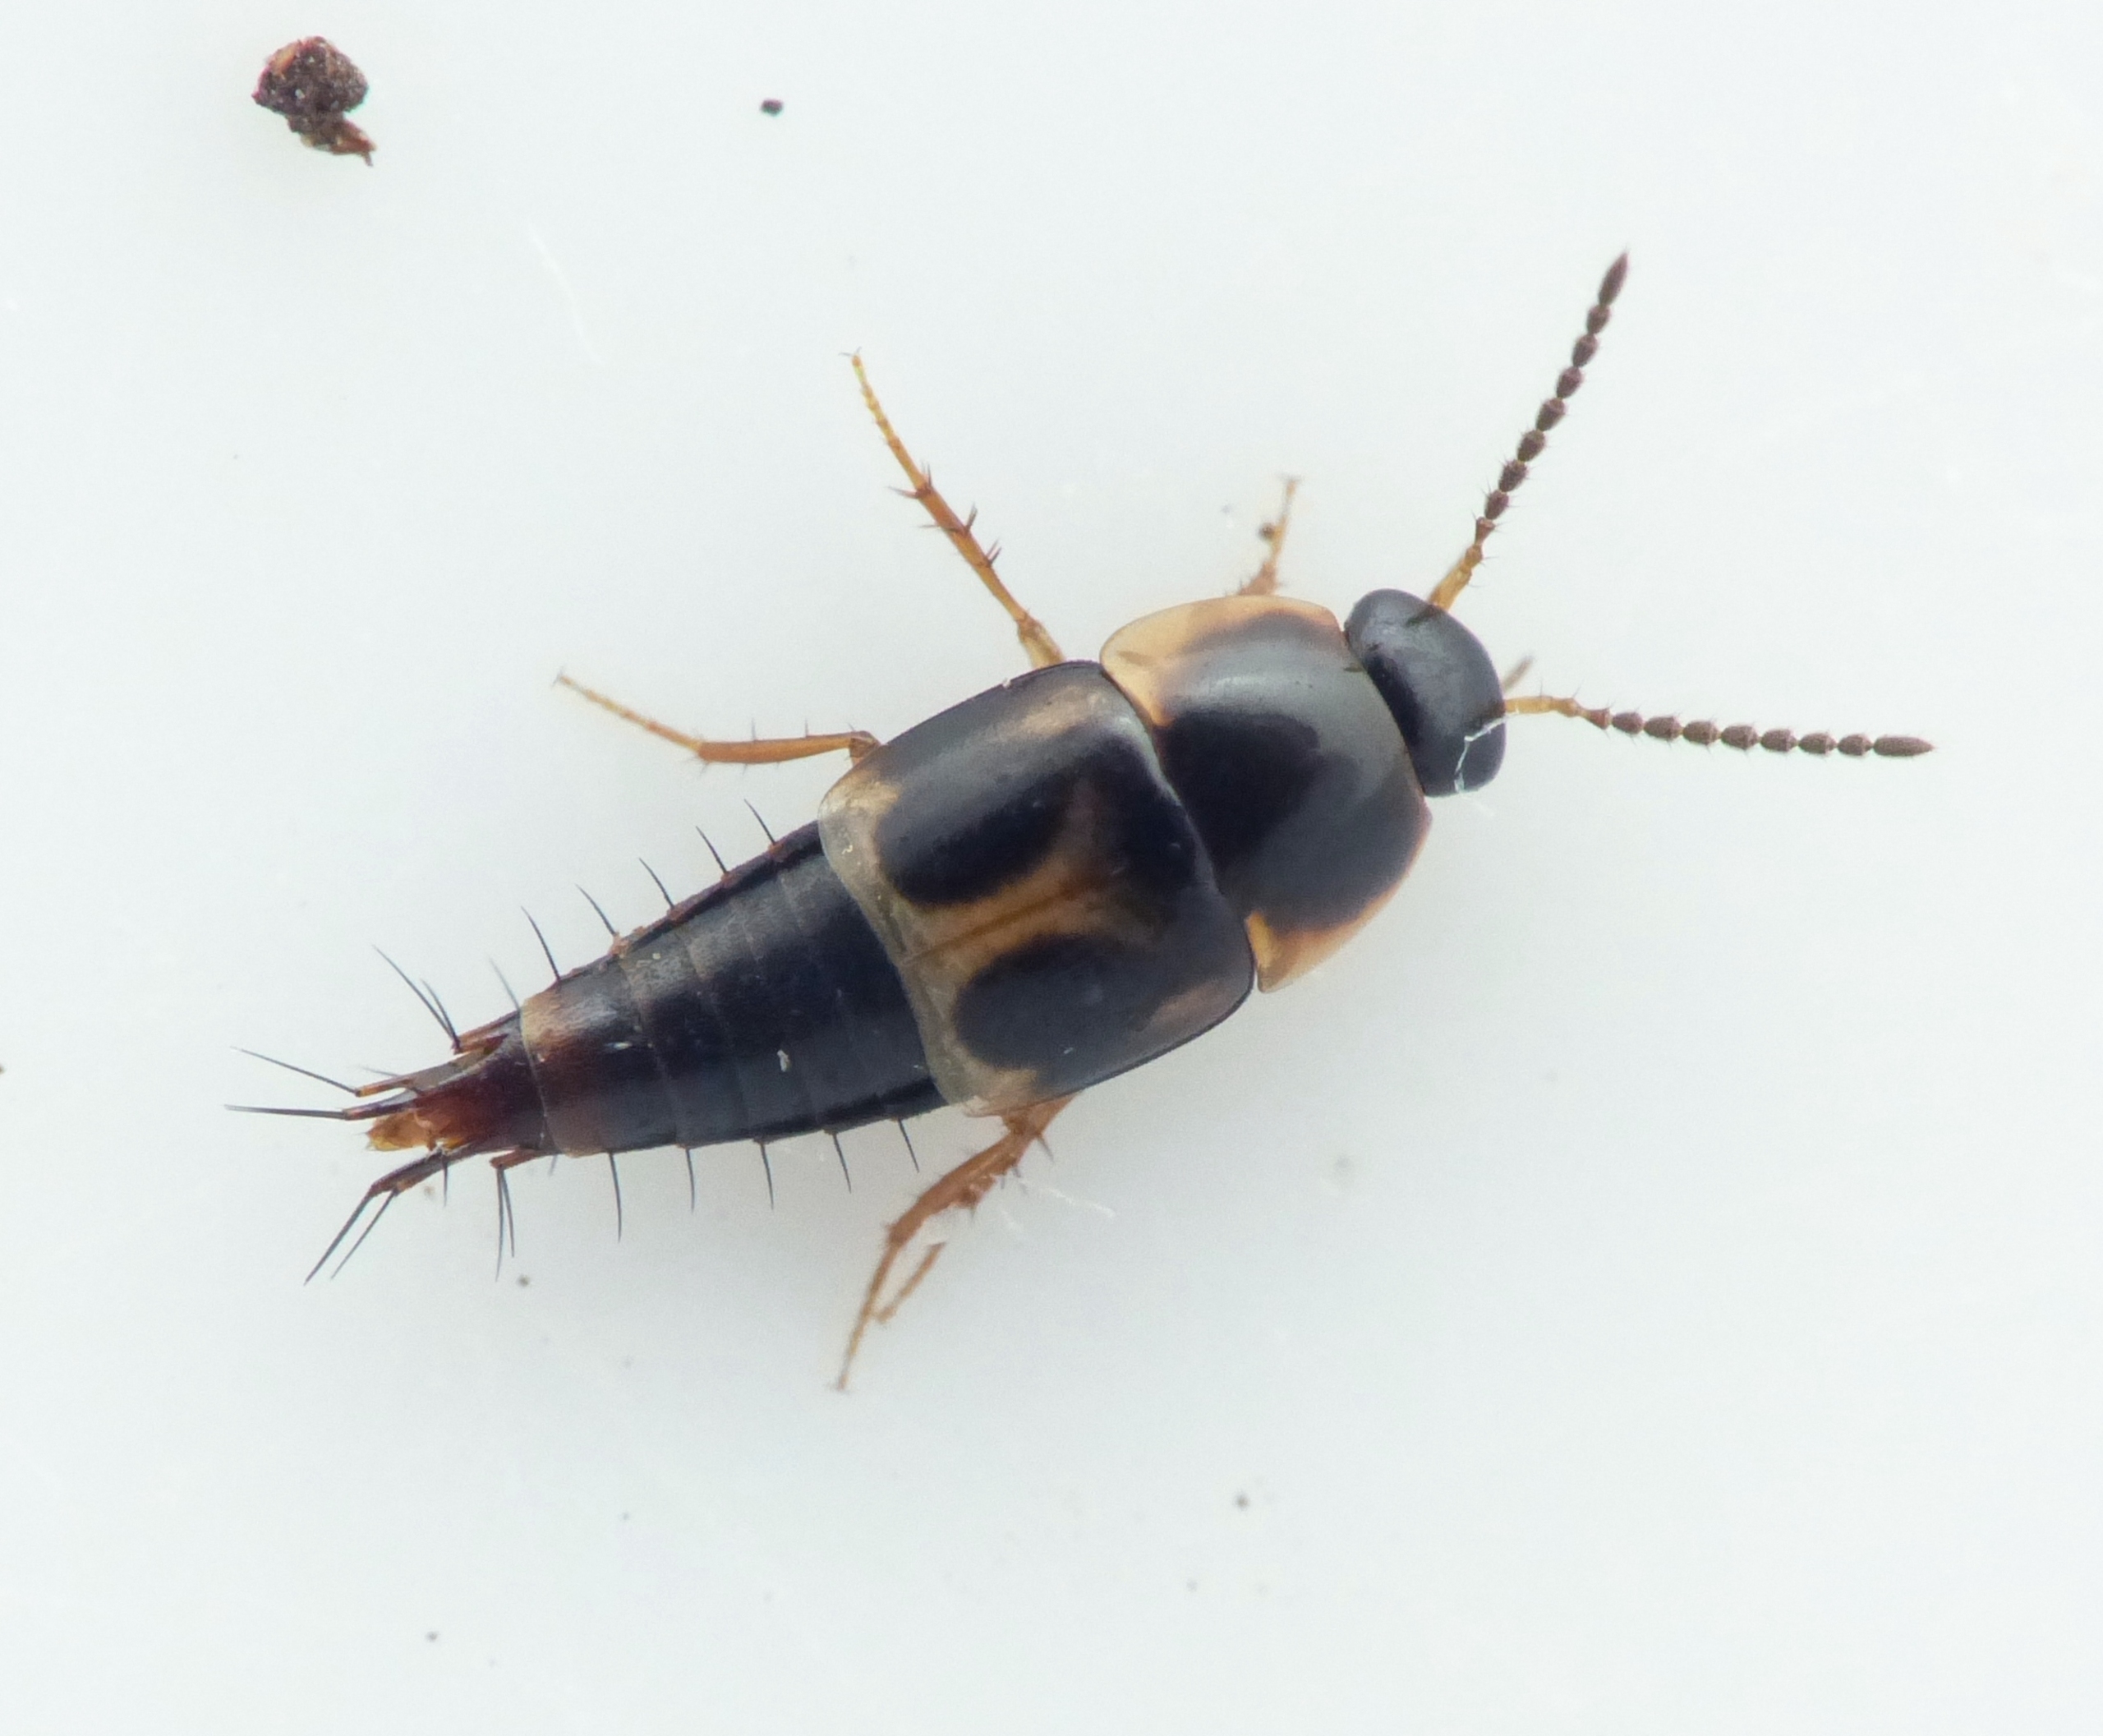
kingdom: Animalia
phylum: Arthropoda
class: Insecta
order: Coleoptera
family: Staphylinidae
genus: Cilea
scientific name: Cilea silphoides
